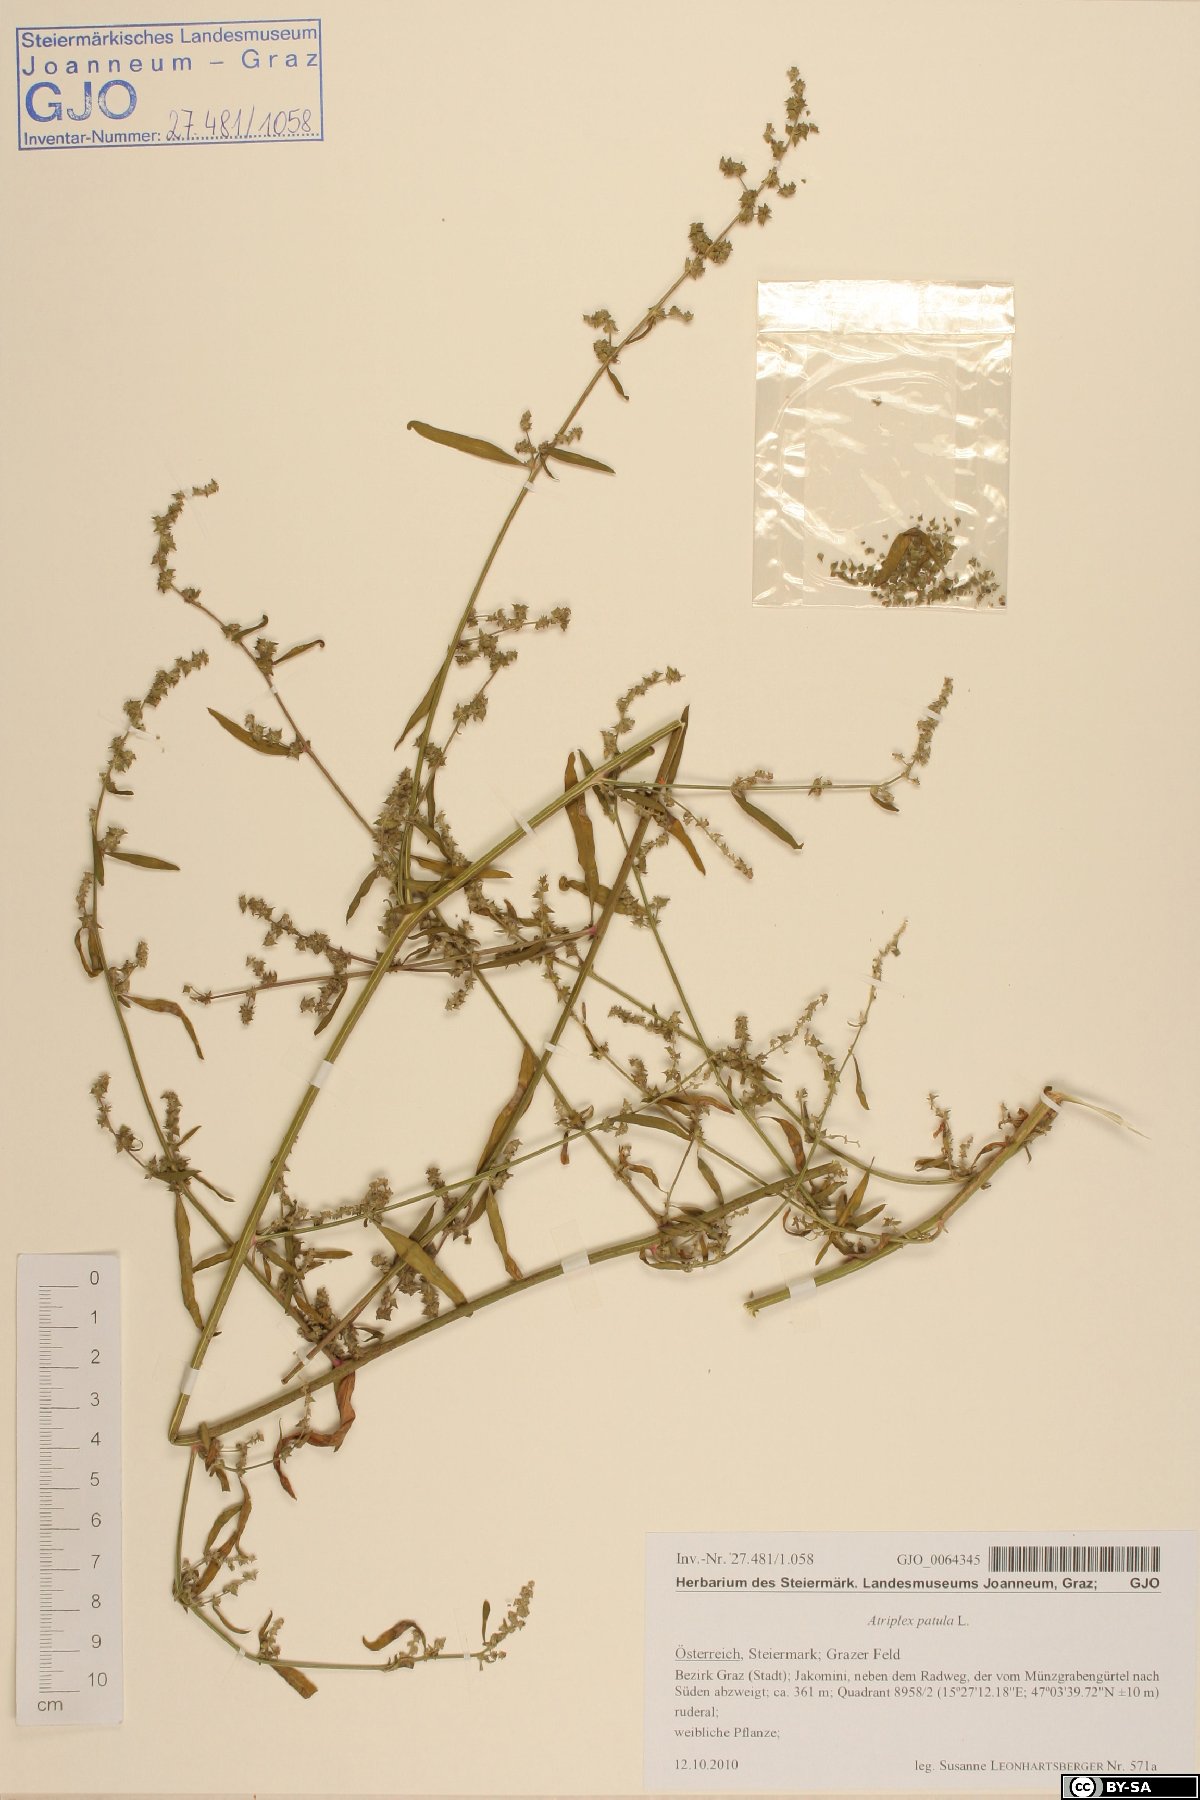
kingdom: Plantae
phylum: Tracheophyta
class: Magnoliopsida
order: Caryophyllales
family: Amaranthaceae
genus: Atriplex
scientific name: Atriplex patula
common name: Common orache
